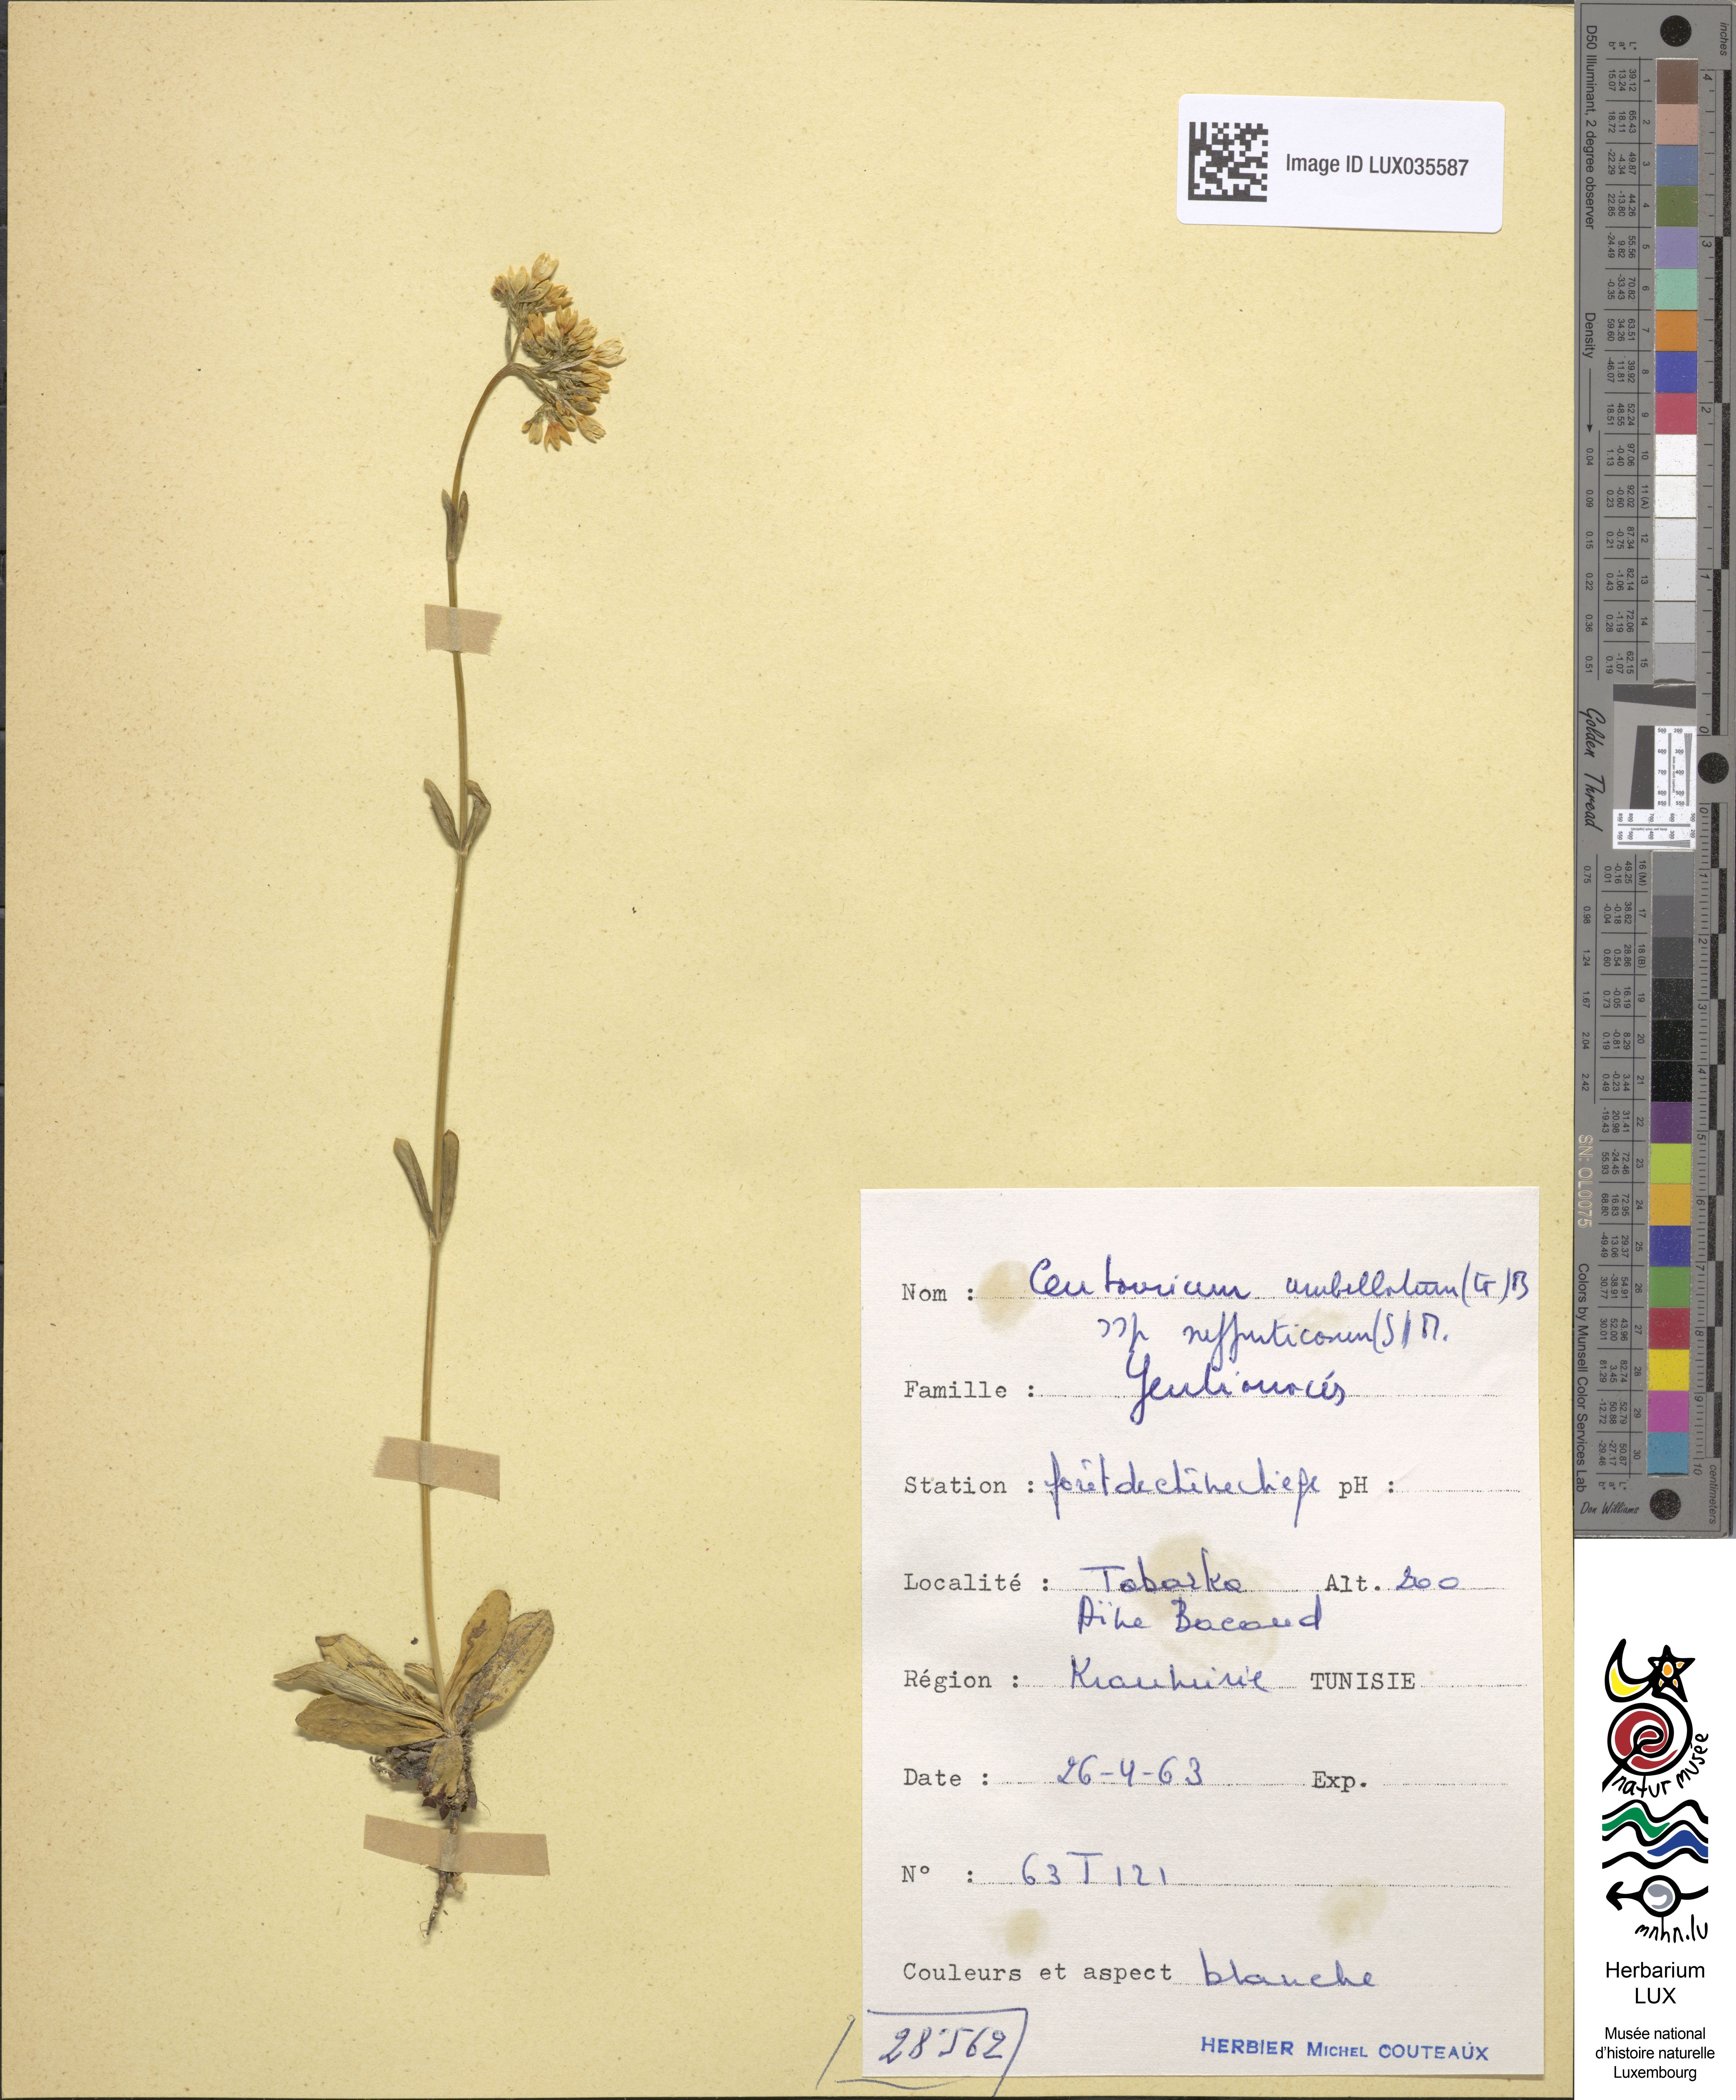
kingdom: Plantae
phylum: Tracheophyta
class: Magnoliopsida
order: Gentianales
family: Gentianaceae
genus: Centaurium
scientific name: Centaurium suffruticosum
